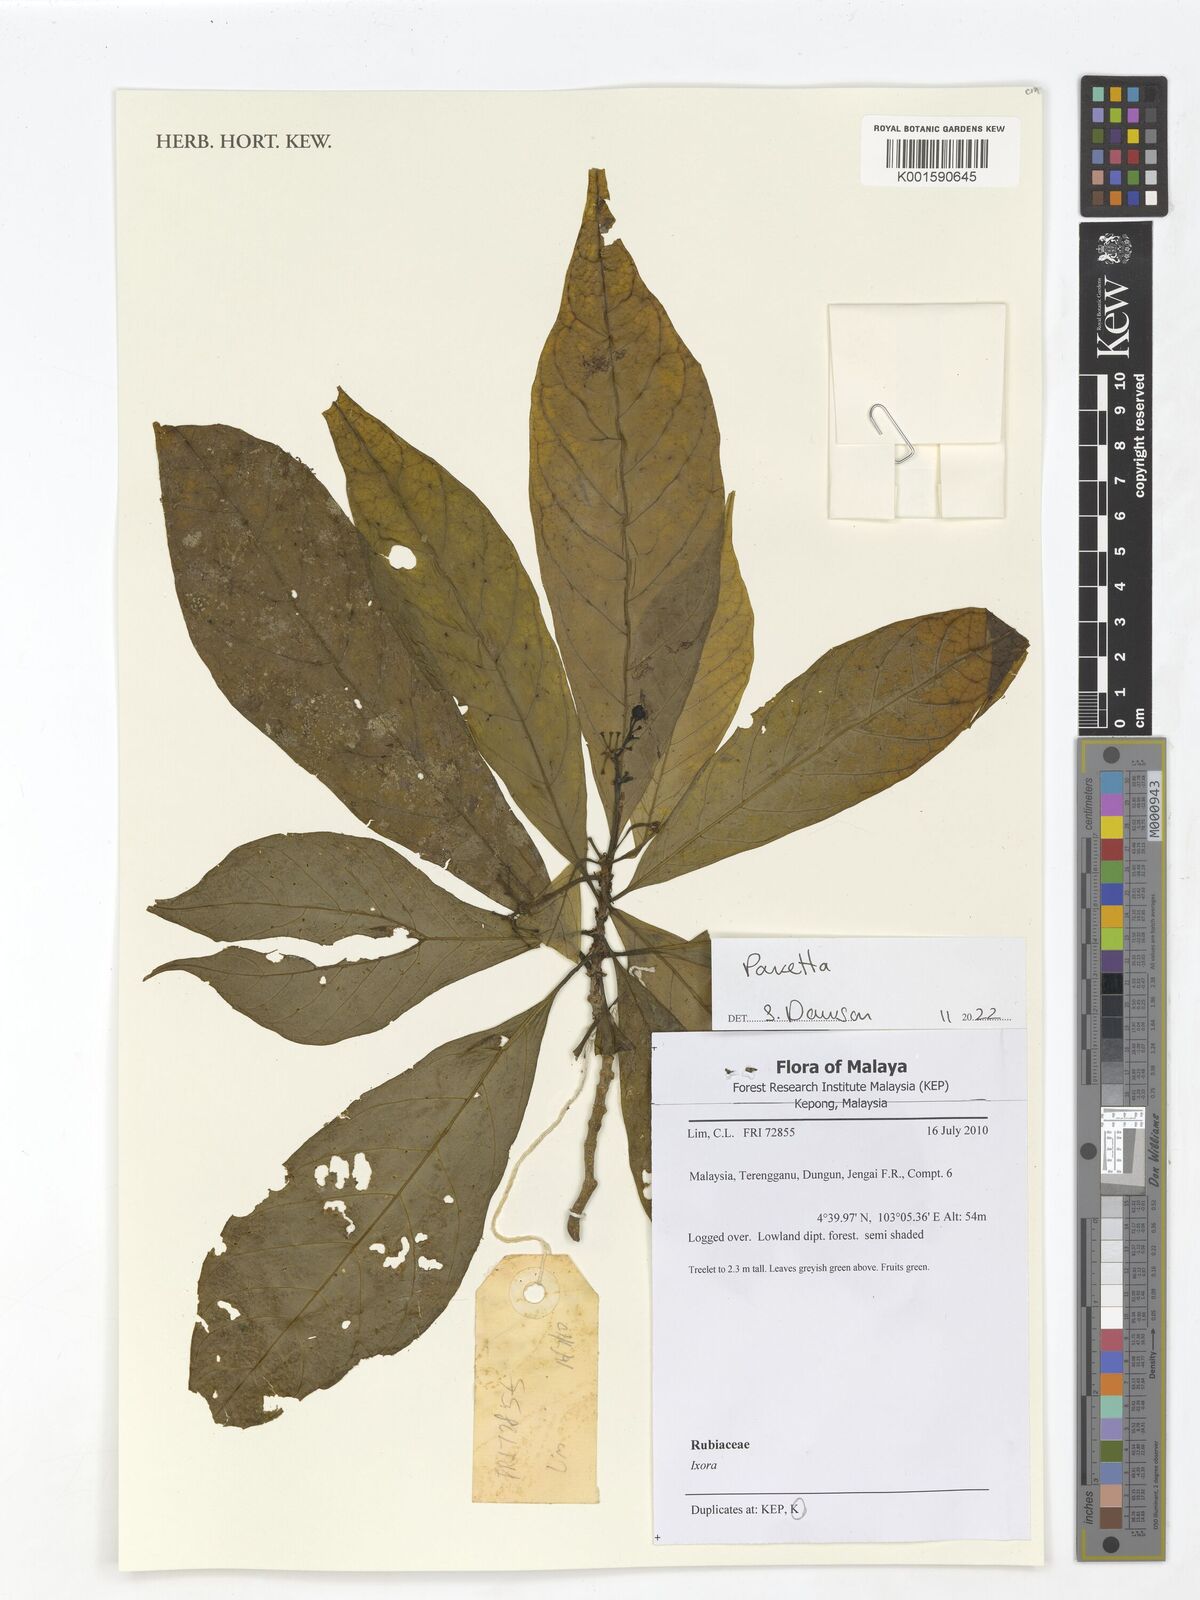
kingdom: Plantae
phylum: Tracheophyta
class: Magnoliopsida
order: Gentianales
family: Rubiaceae
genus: Pavetta
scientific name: Pavetta
